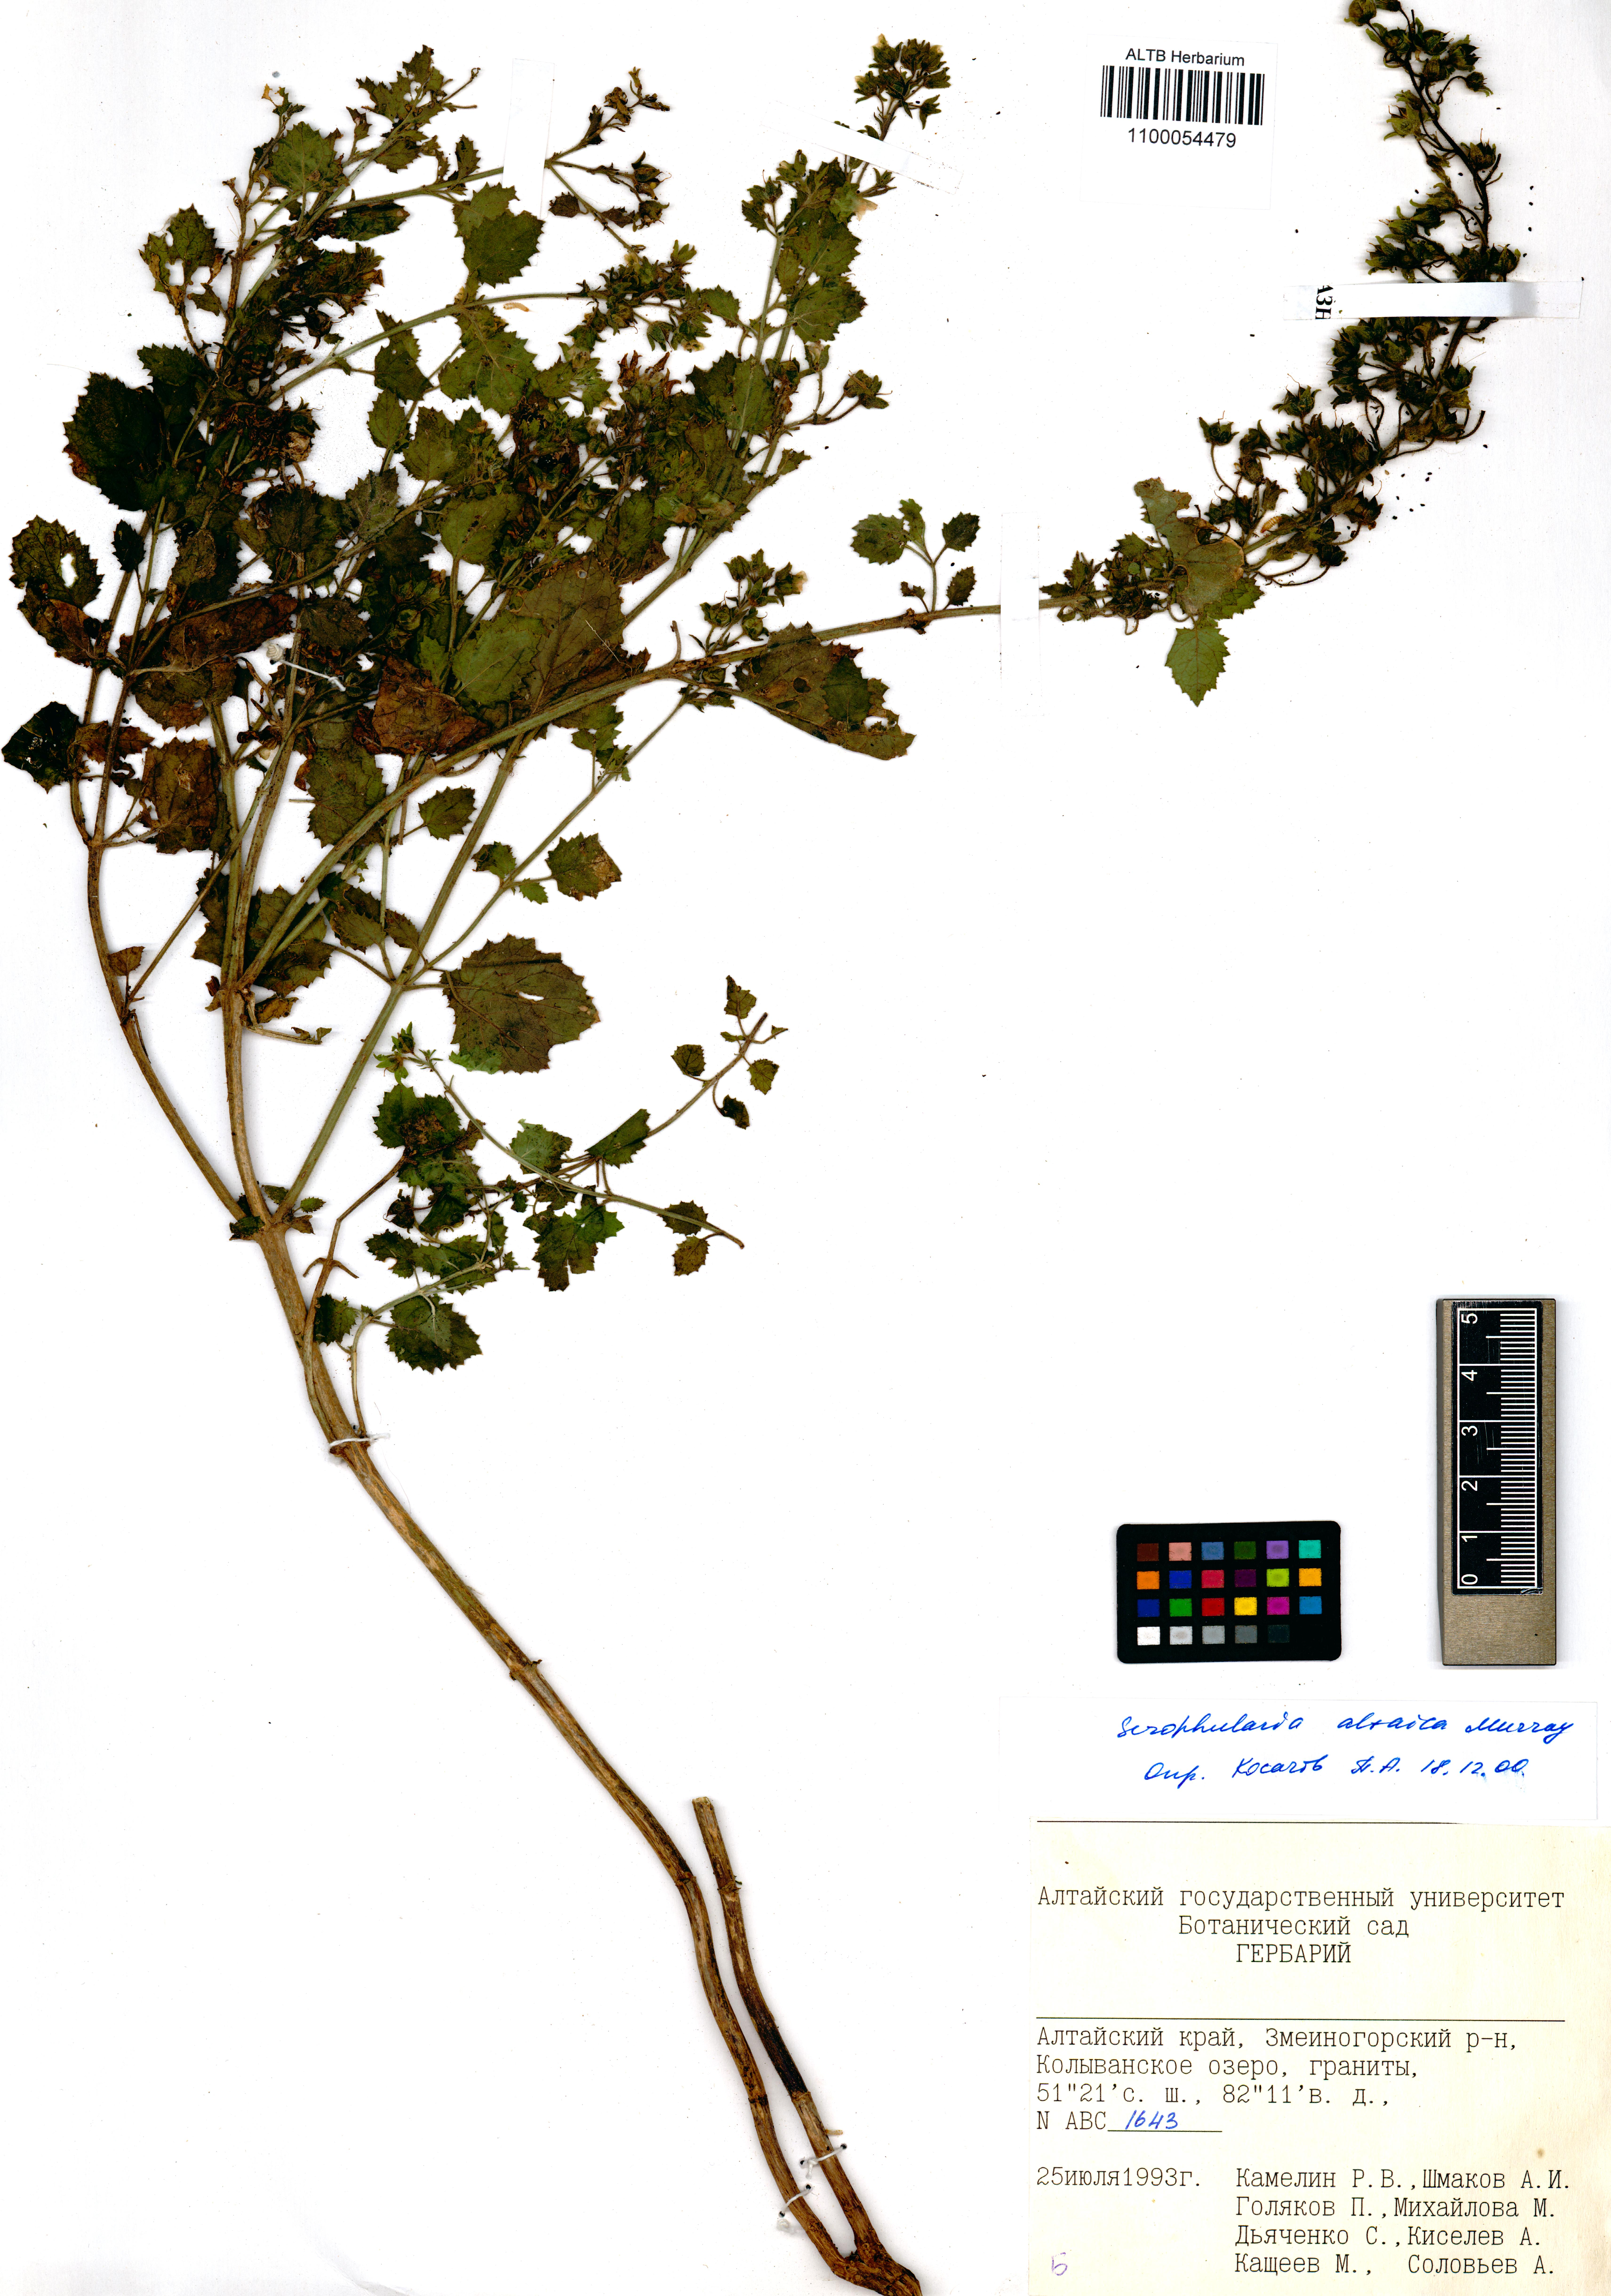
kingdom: Plantae
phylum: Tracheophyta
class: Magnoliopsida
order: Lamiales
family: Scrophulariaceae
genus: Scrophularia
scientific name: Scrophularia altaica
